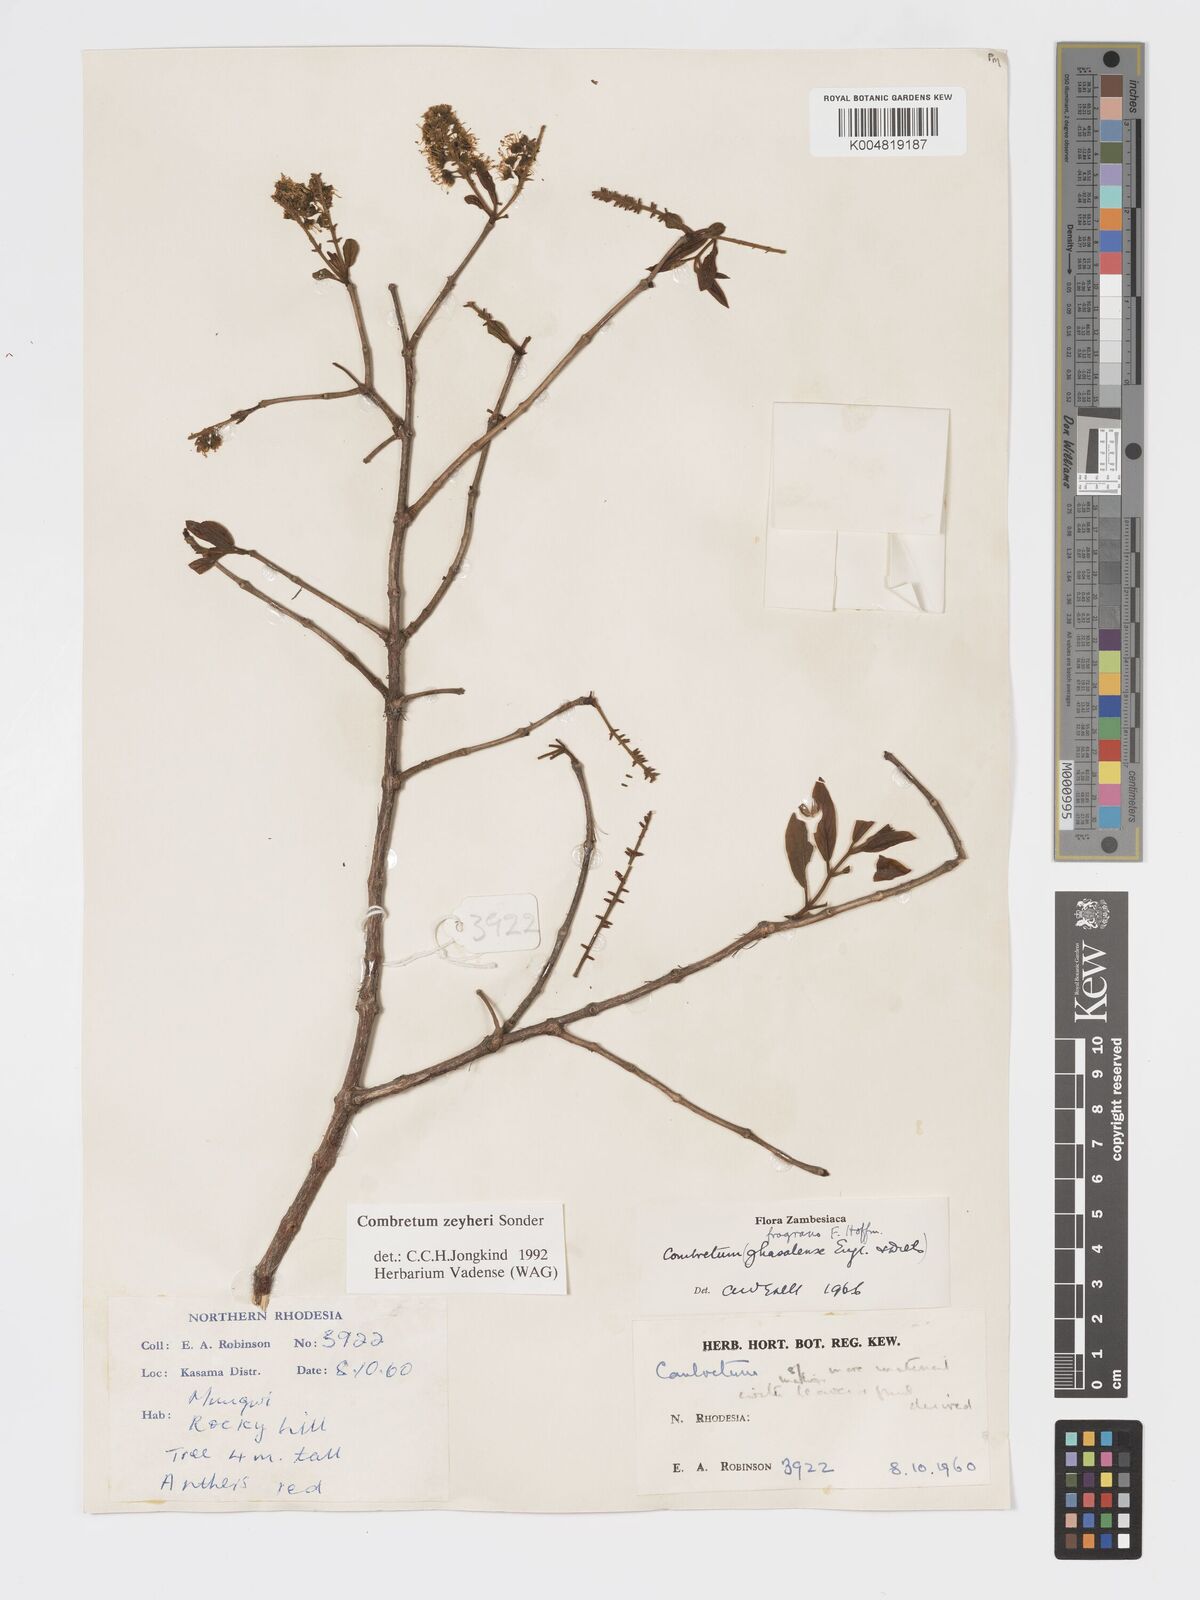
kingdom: Plantae
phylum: Tracheophyta
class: Magnoliopsida
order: Myrtales
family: Combretaceae
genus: Combretum
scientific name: Combretum zeyheri
